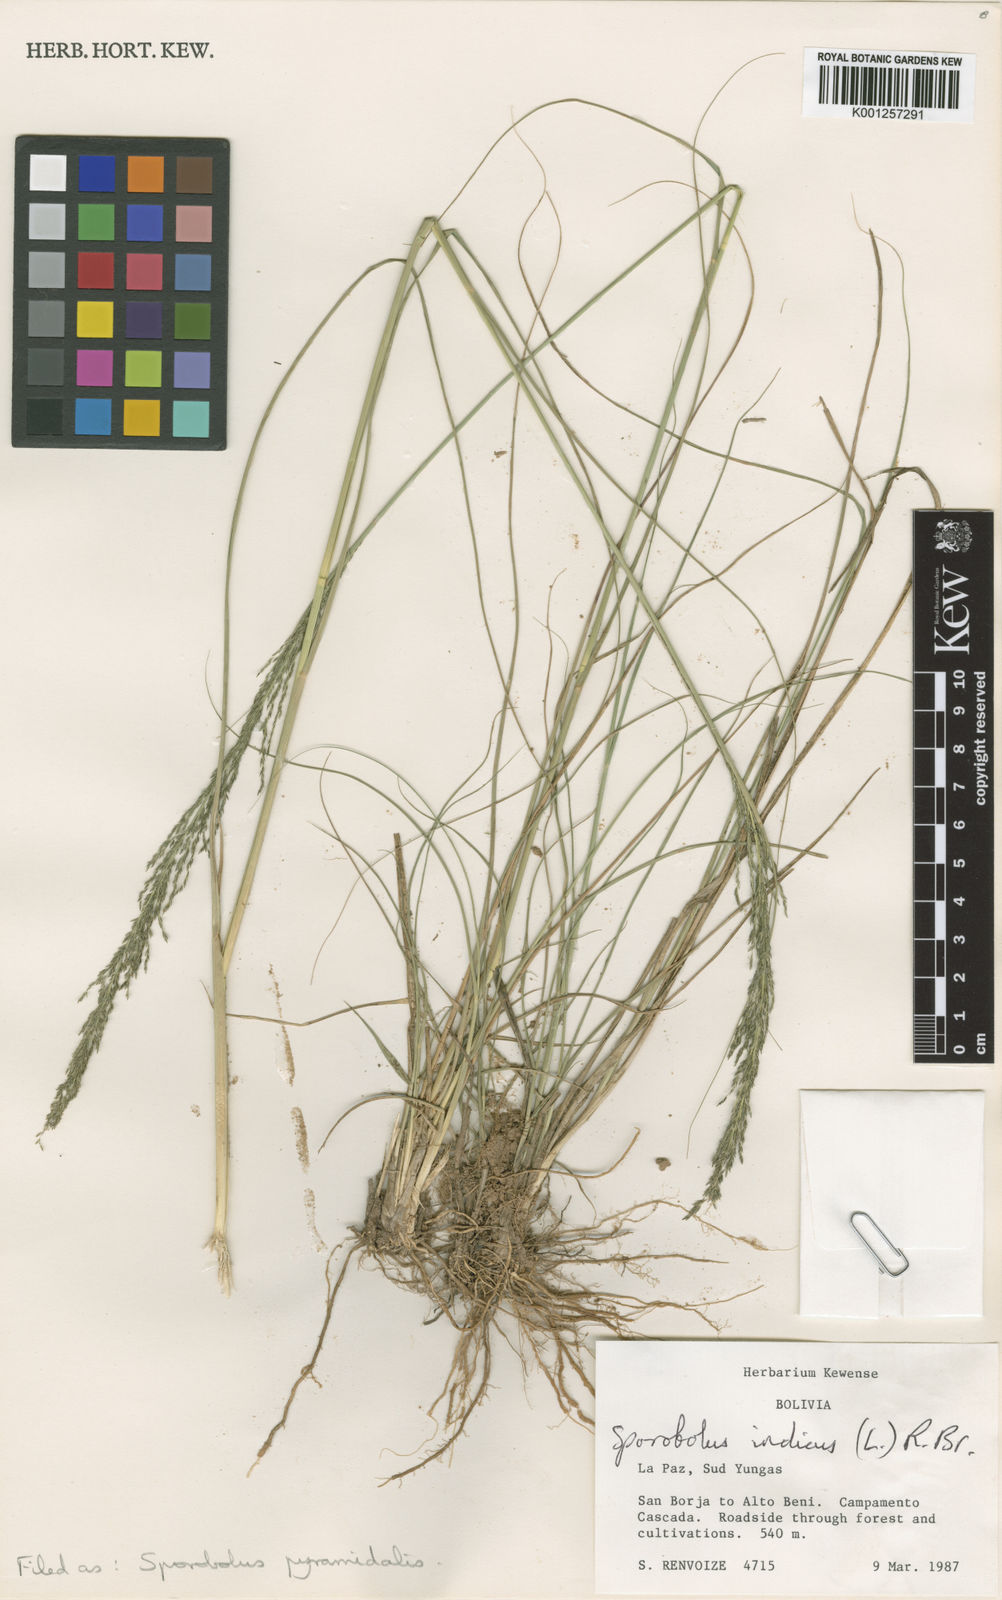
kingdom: Plantae
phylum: Tracheophyta
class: Liliopsida
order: Poales
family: Poaceae
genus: Sporobolus
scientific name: Sporobolus pyramidalis
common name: West indian dropseed
